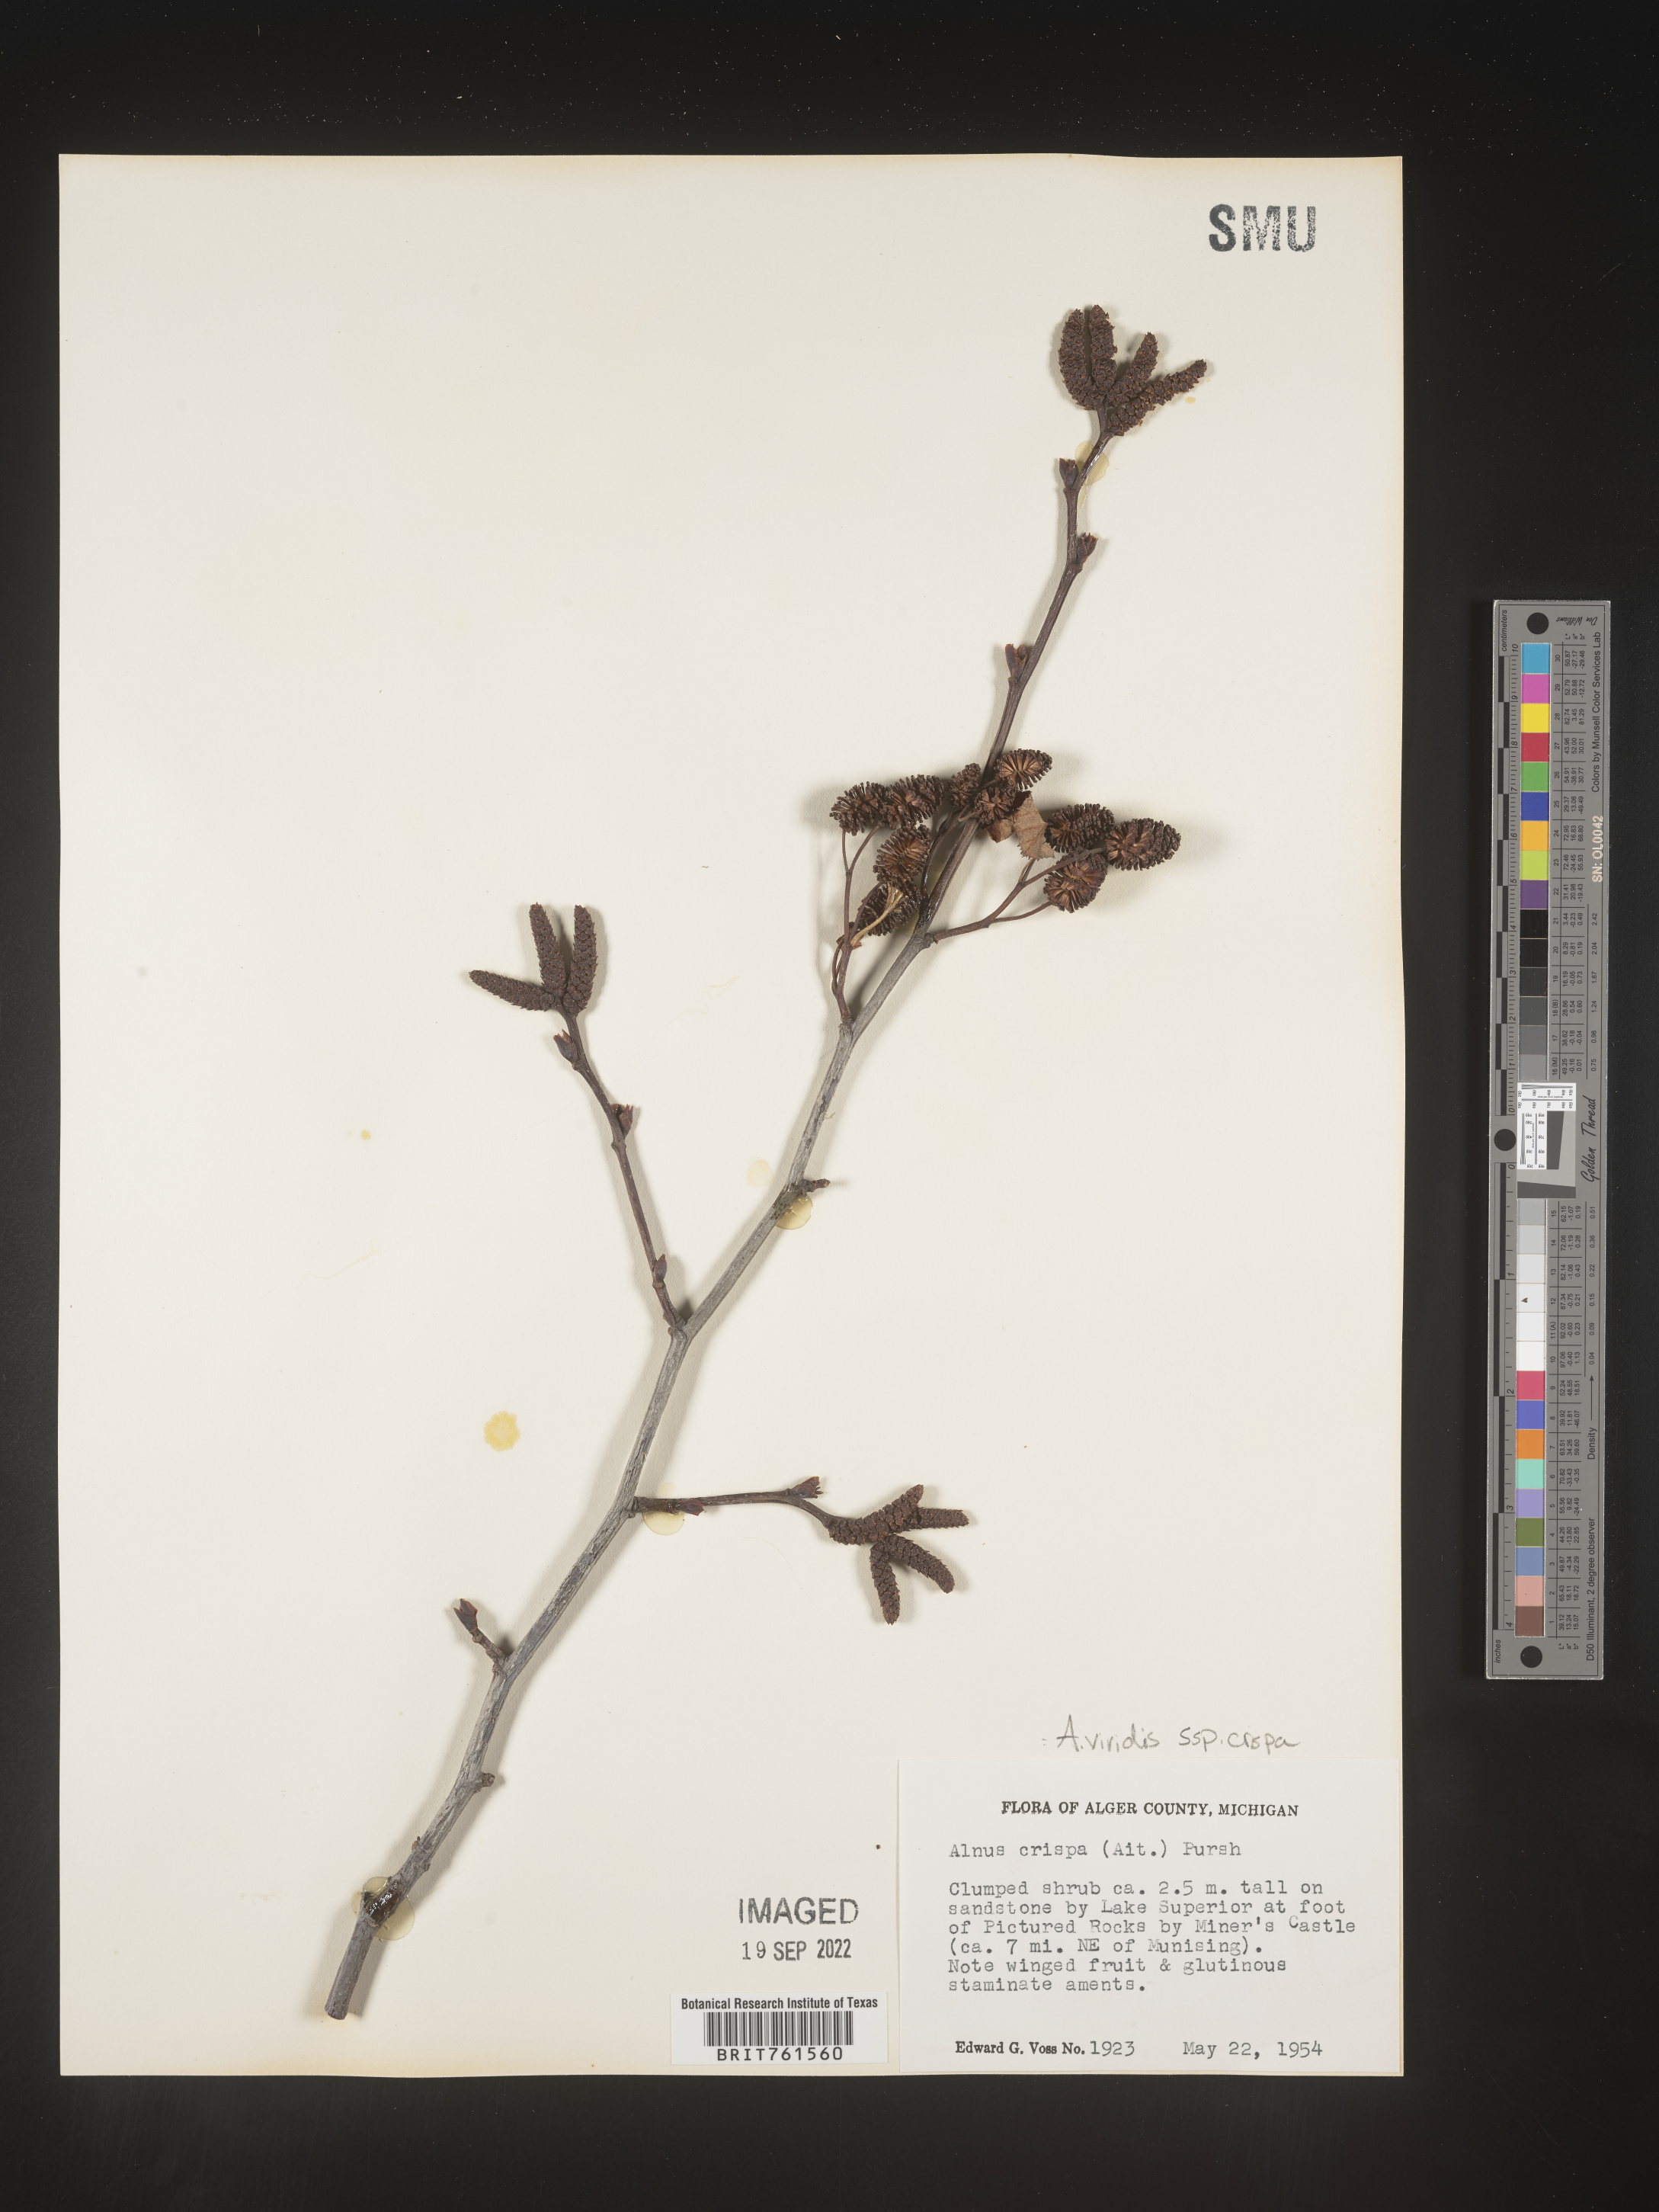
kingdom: Plantae
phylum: Tracheophyta
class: Magnoliopsida
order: Fagales
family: Betulaceae
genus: Alnus
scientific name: Alnus alnobetula
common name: Green alder
